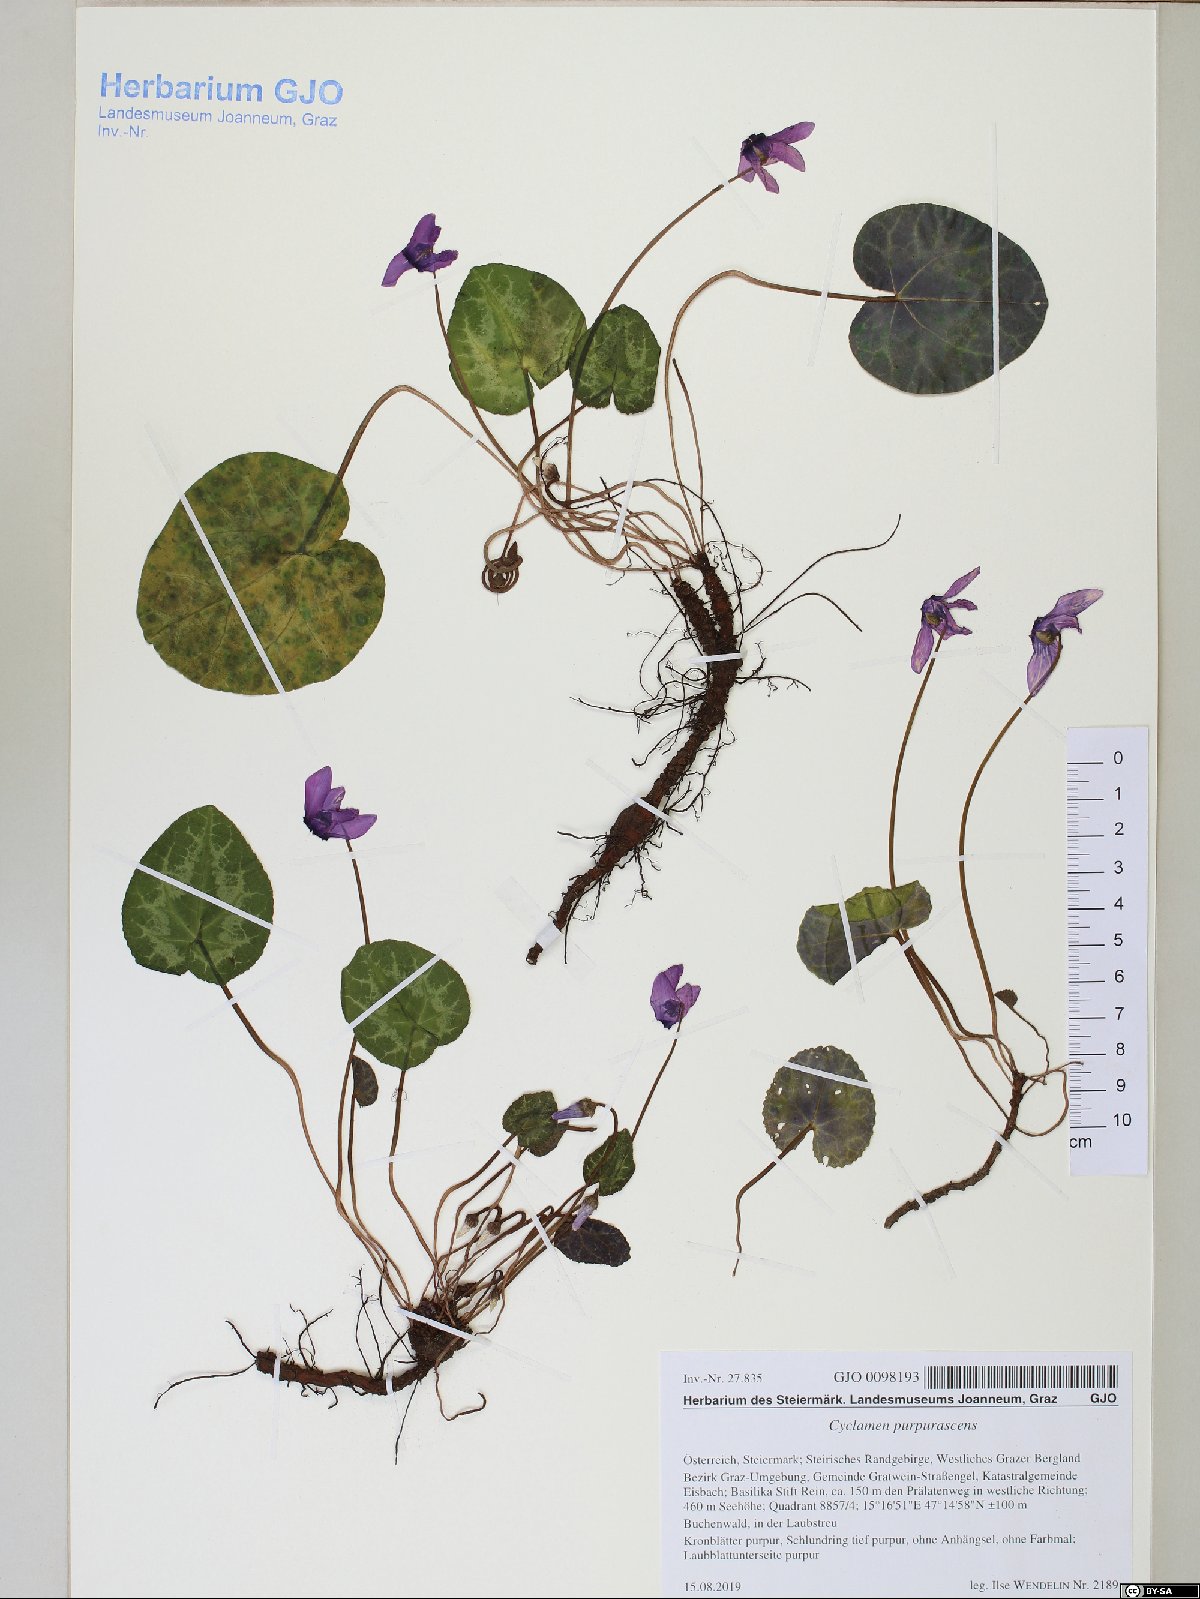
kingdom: Plantae
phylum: Tracheophyta
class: Magnoliopsida
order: Ericales
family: Primulaceae
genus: Cyclamen
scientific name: Cyclamen purpurascens
